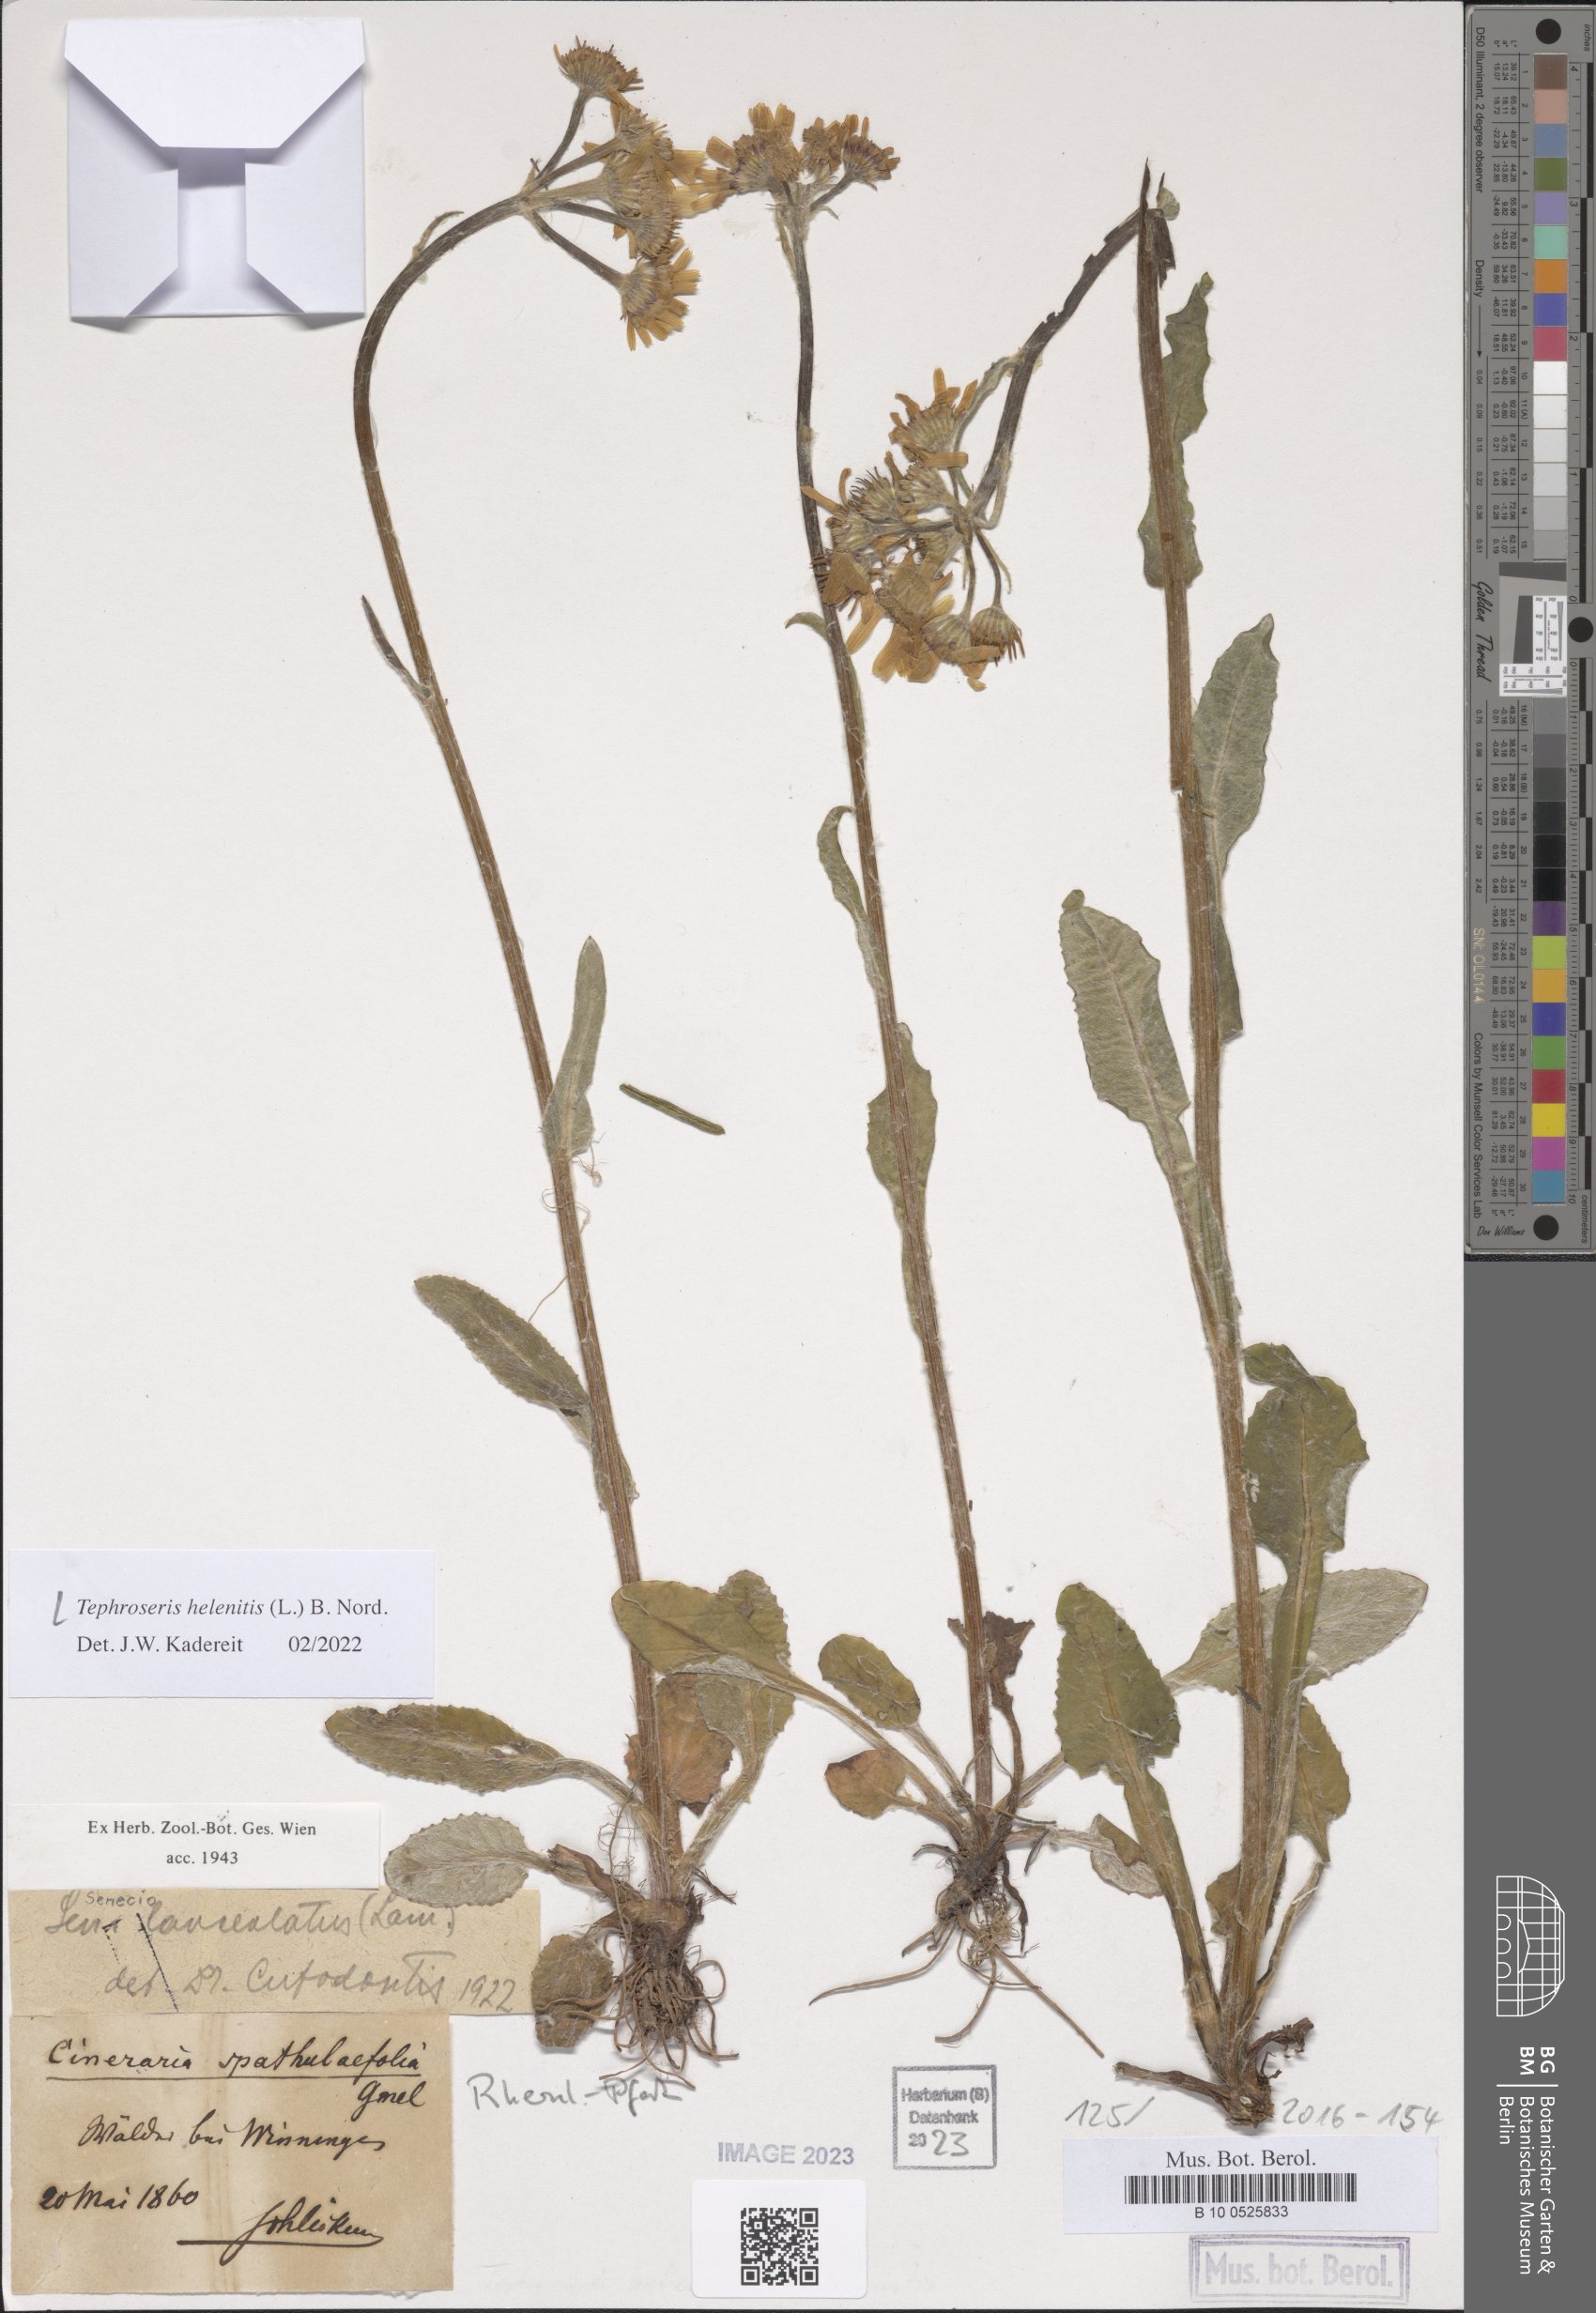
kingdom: Plantae
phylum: Tracheophyta
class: Magnoliopsida
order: Asterales
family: Asteraceae
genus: Tephroseris
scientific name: Tephroseris helenitis
